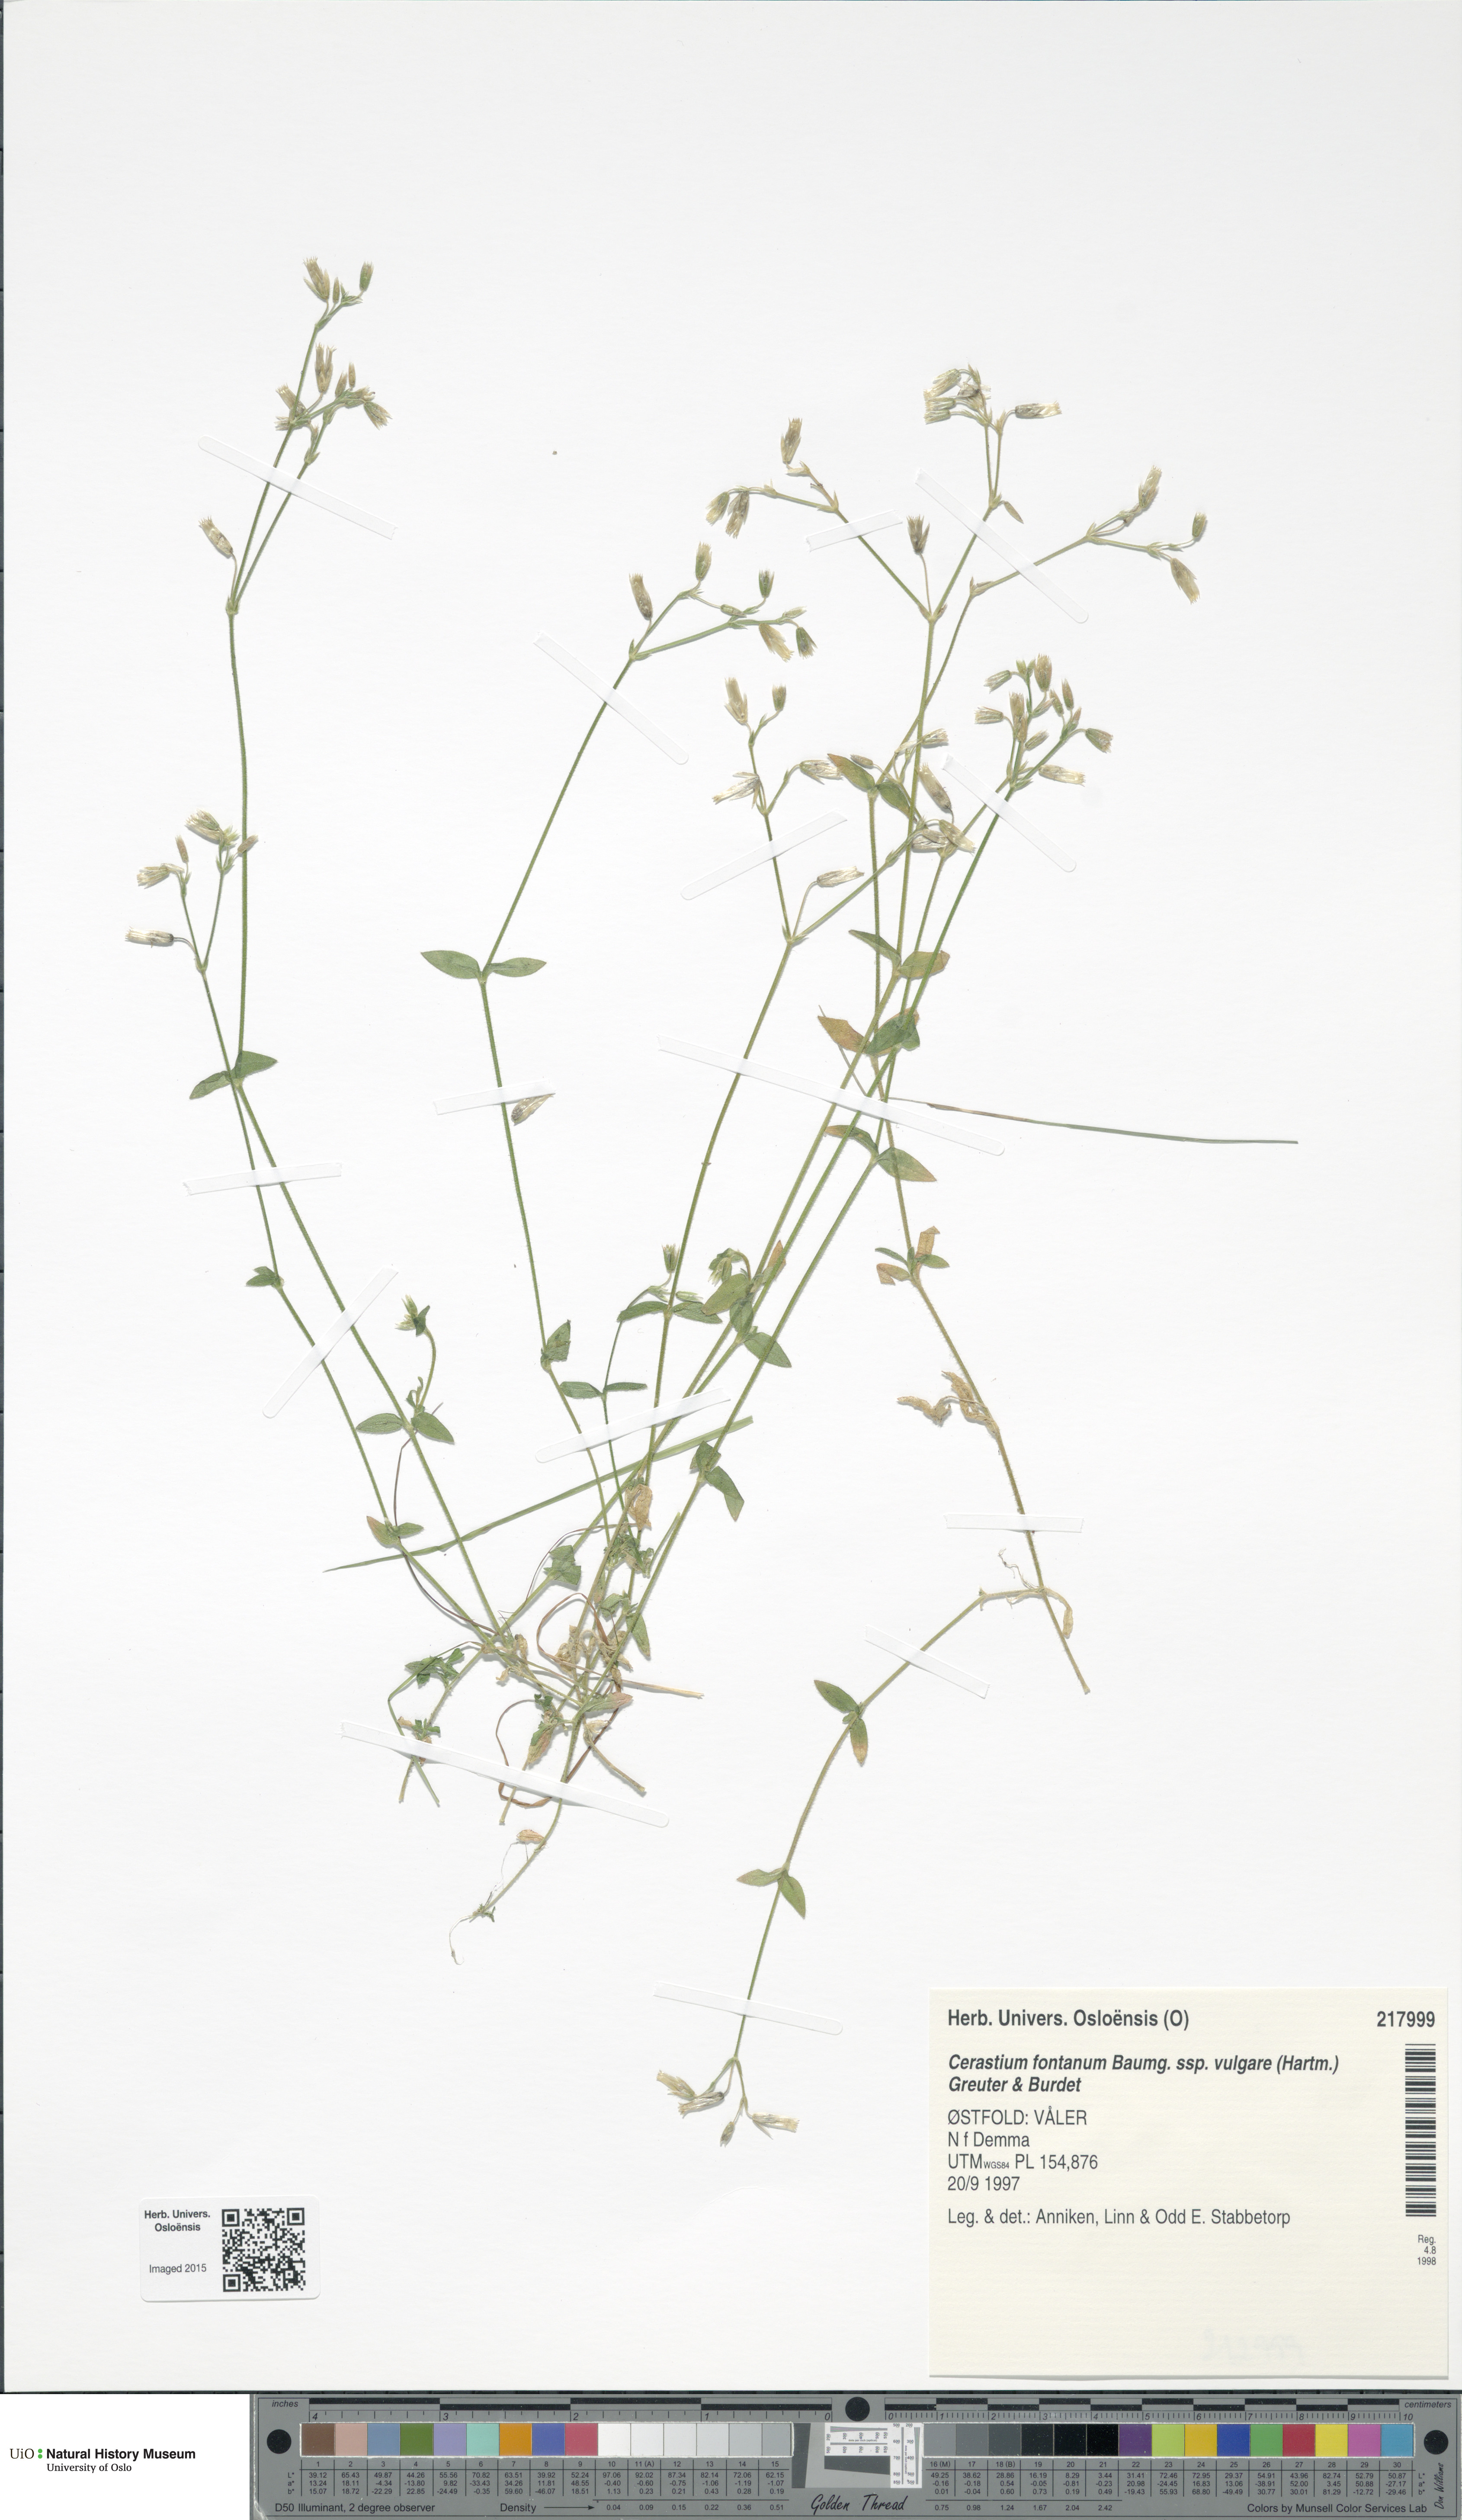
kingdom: Plantae
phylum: Tracheophyta
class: Magnoliopsida
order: Caryophyllales
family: Caryophyllaceae
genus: Cerastium
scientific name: Cerastium holosteoides
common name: Big chickweed
